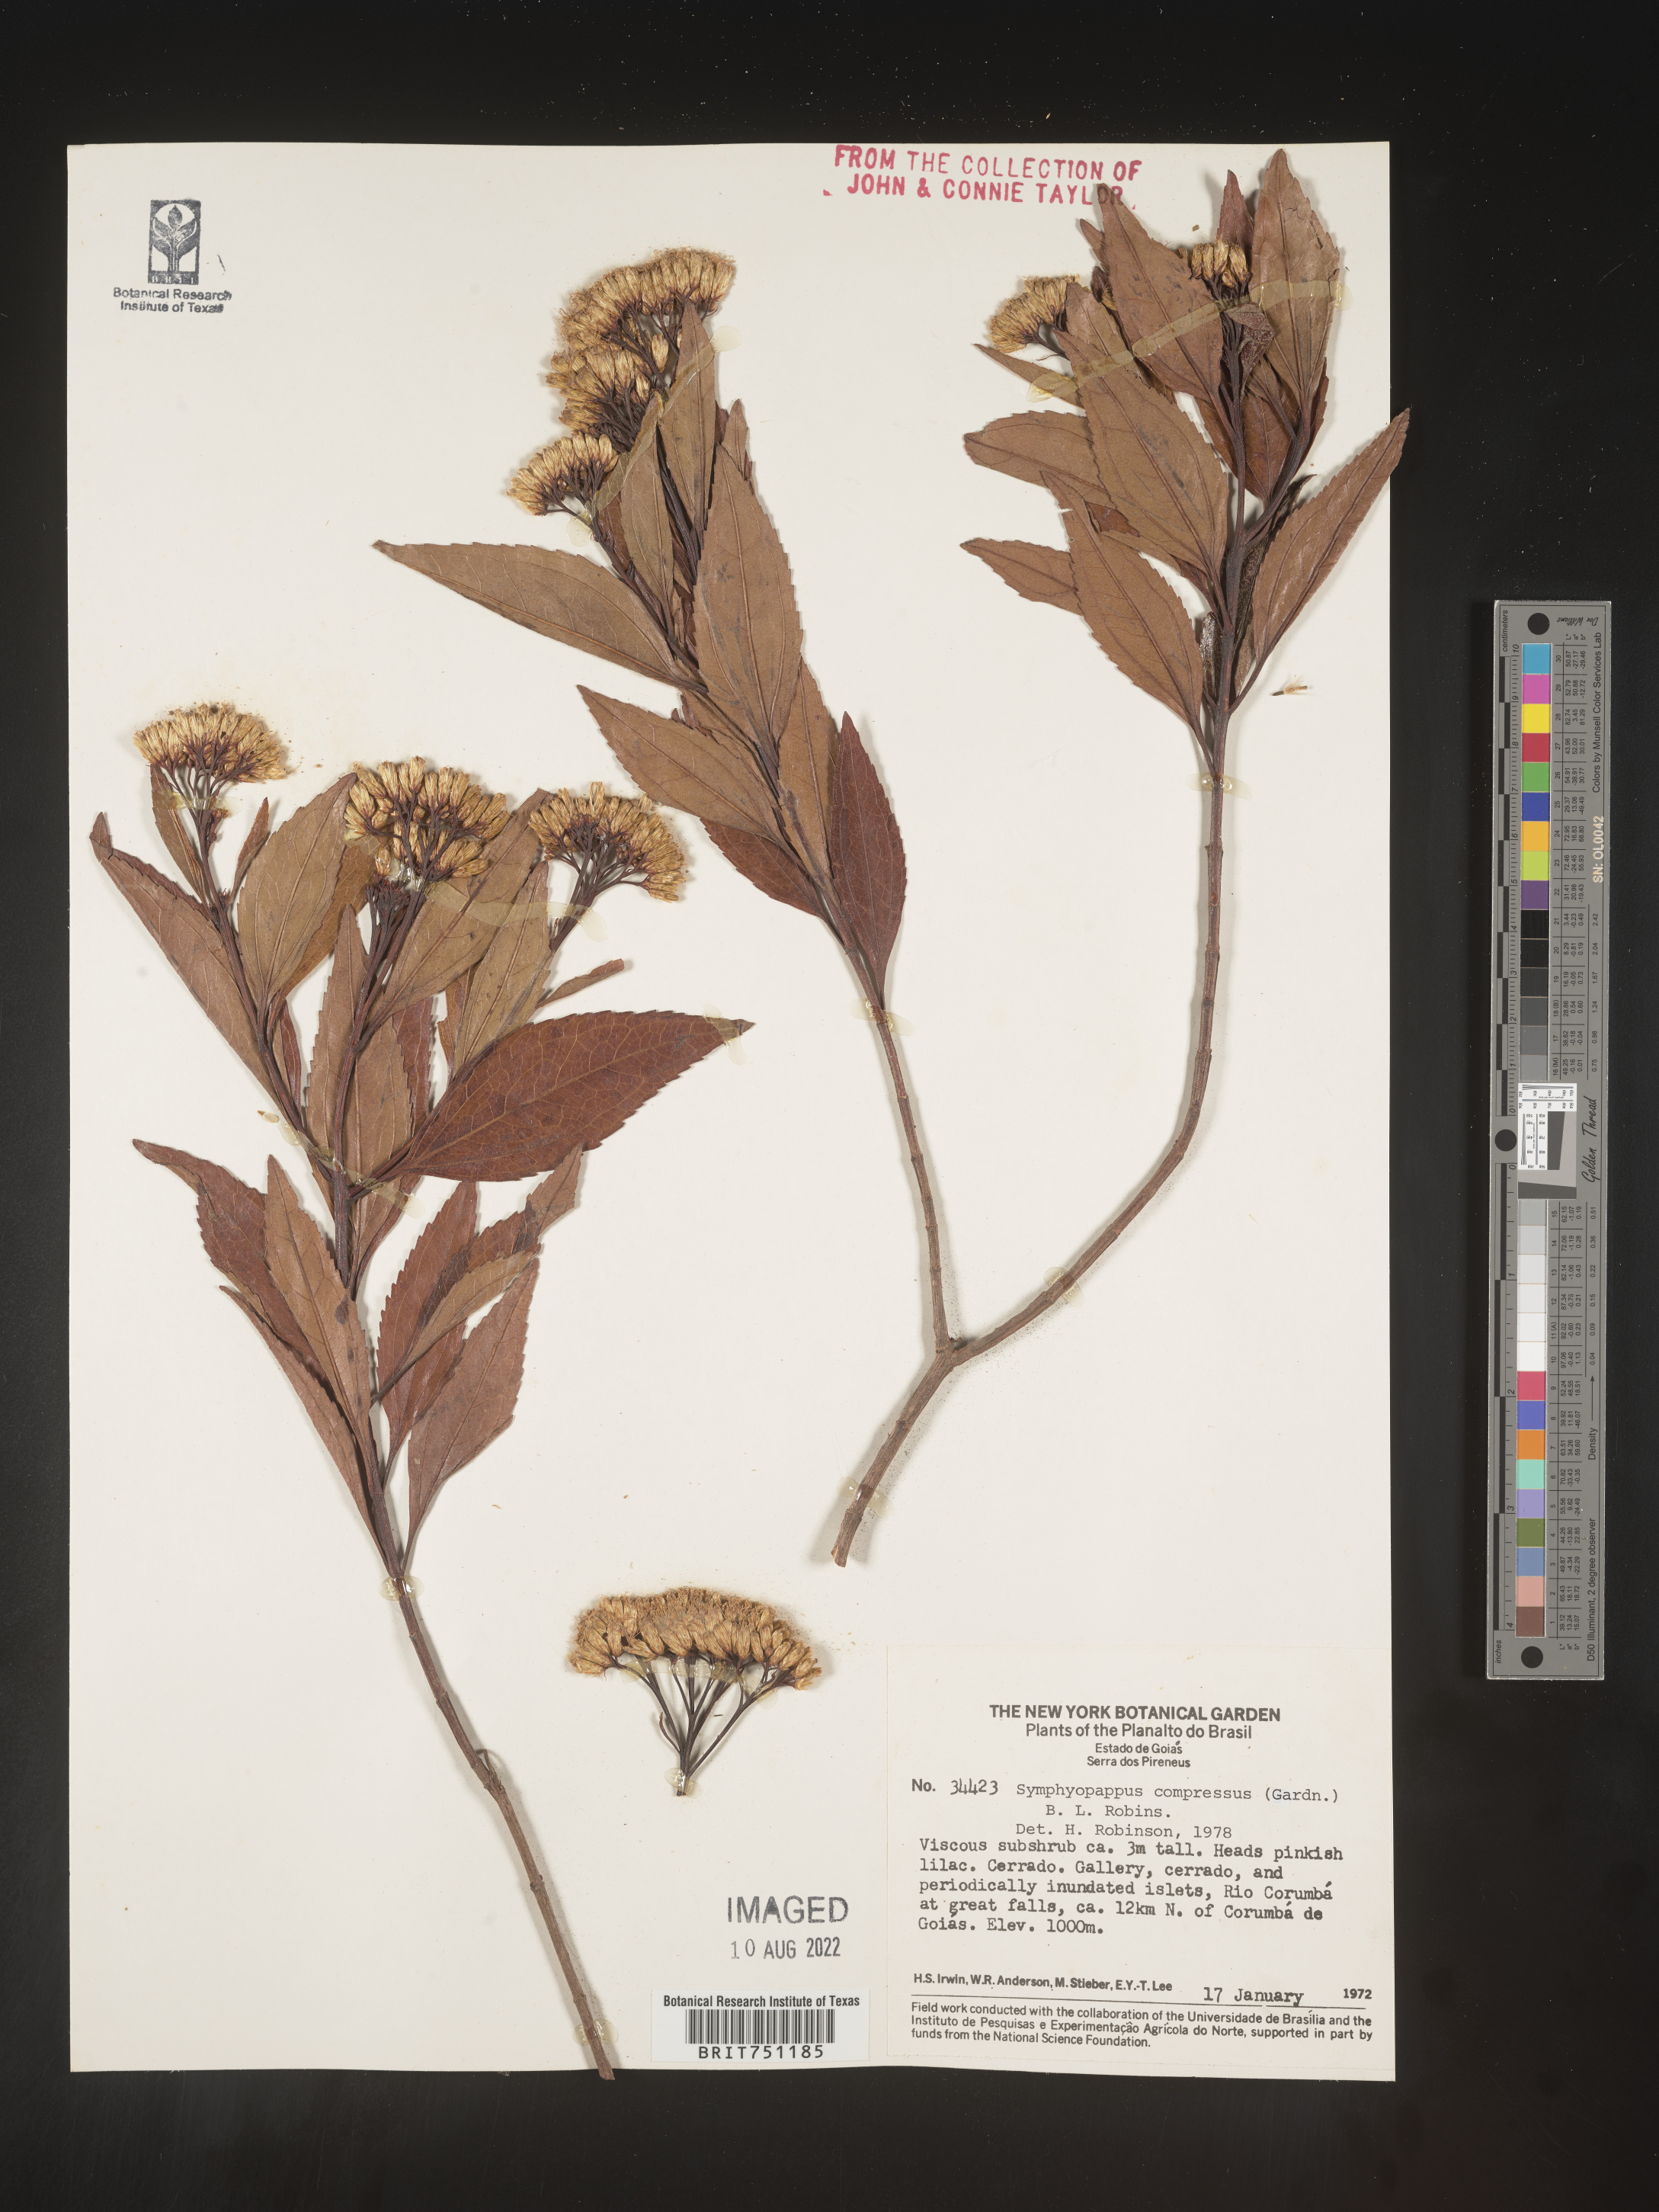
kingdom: Plantae
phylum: Tracheophyta
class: Magnoliopsida
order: Asterales
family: Asteraceae
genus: Symphyopappus
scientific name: Symphyopappus
